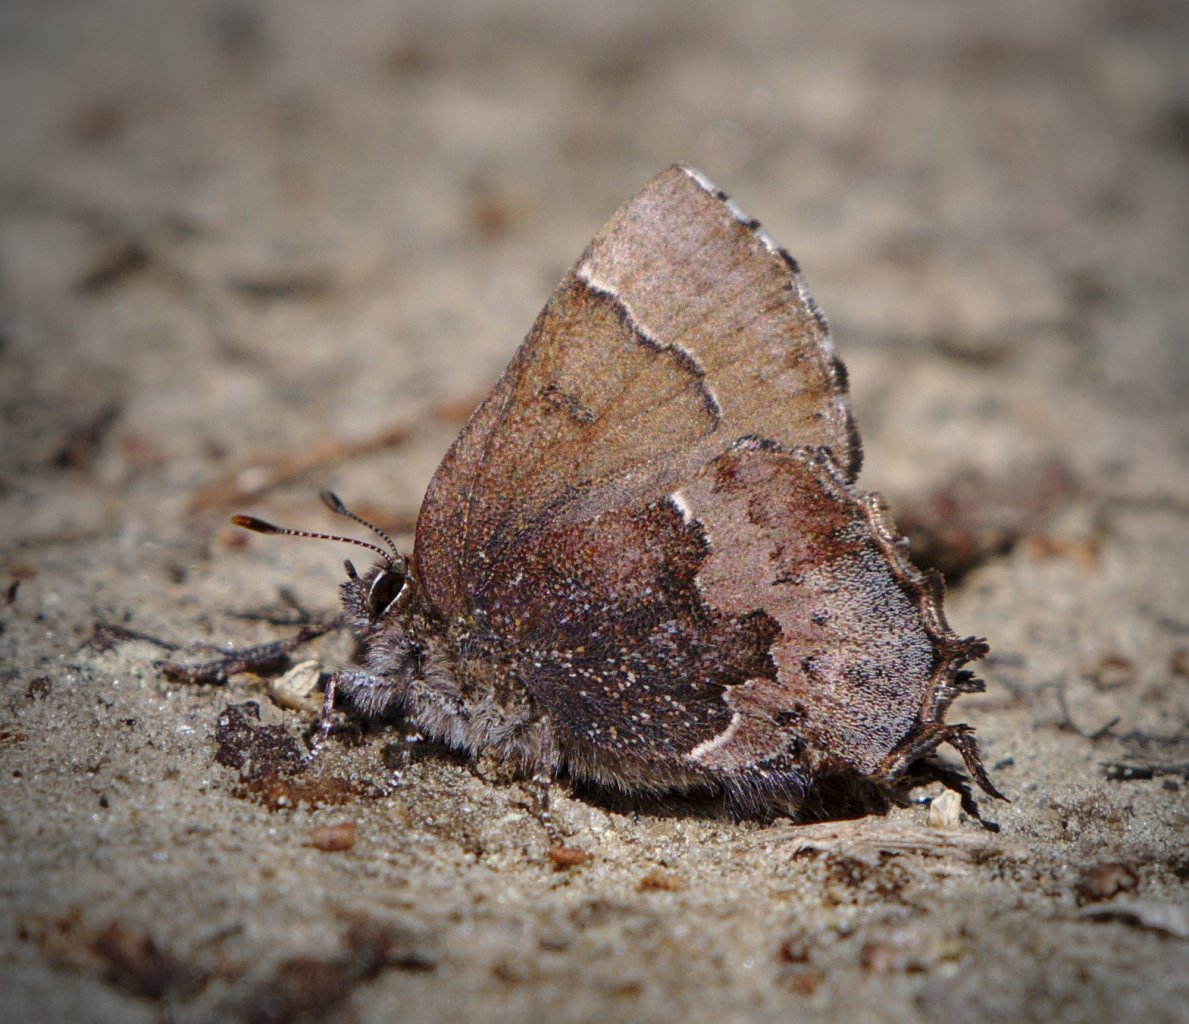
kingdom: Animalia
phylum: Arthropoda
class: Insecta
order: Lepidoptera
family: Lycaenidae
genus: Incisalia
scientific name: Incisalia henrici
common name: Henry's Elfin
